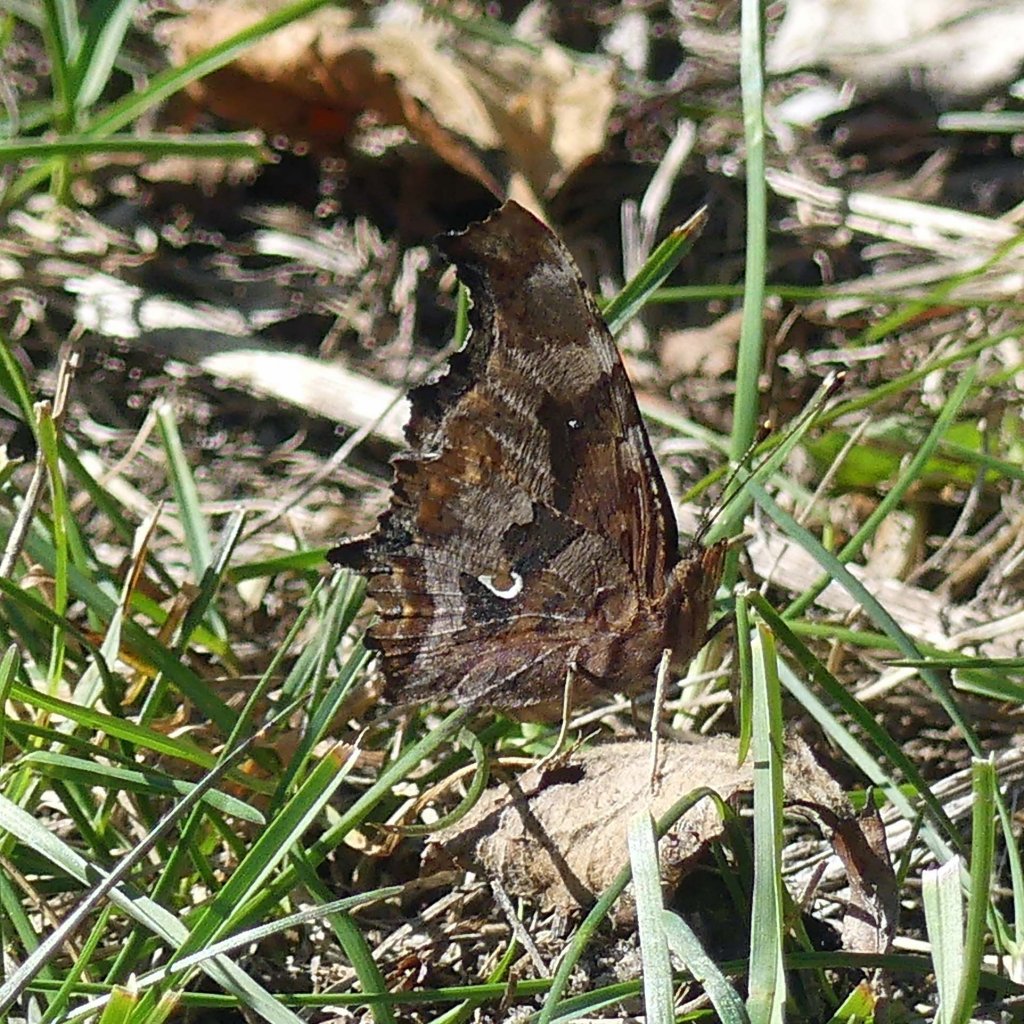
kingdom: Animalia
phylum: Arthropoda
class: Insecta
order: Lepidoptera
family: Nymphalidae
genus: Polygonia
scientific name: Polygonia comma
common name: Eastern Comma
